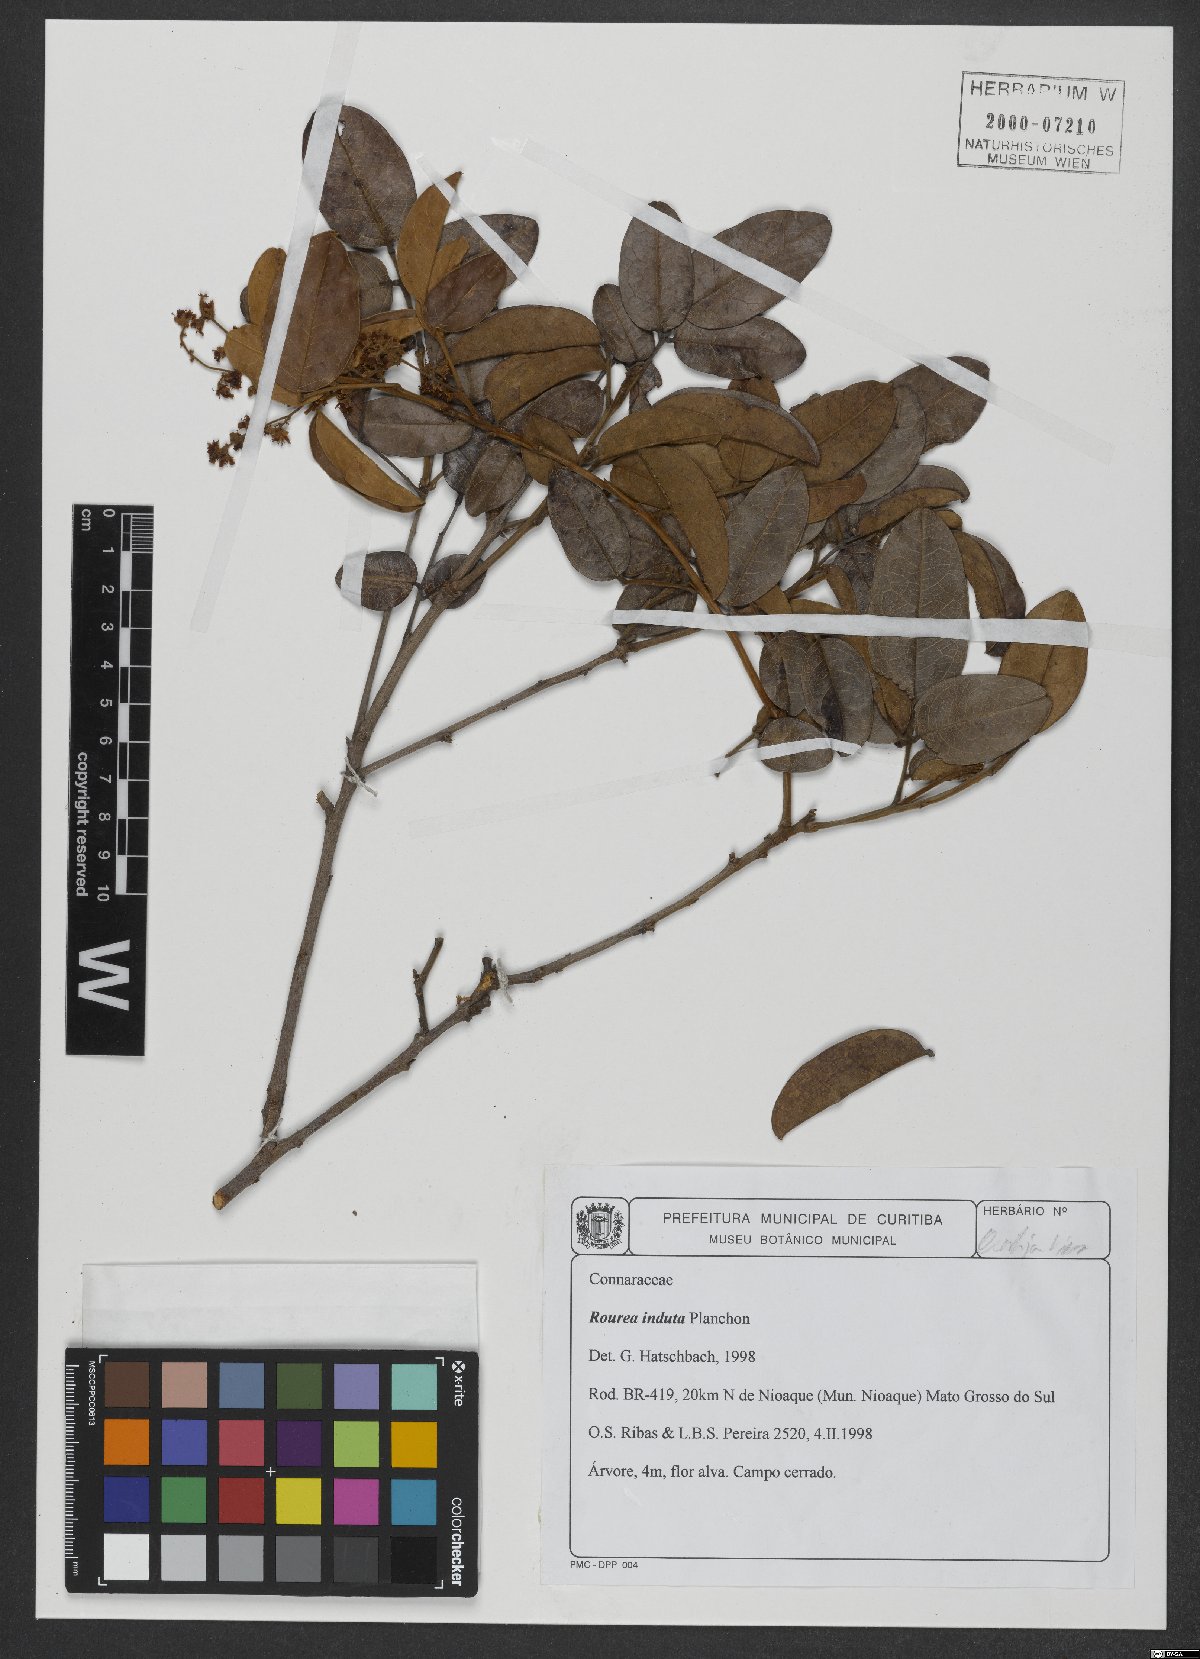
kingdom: Plantae
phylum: Tracheophyta
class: Magnoliopsida
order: Oxalidales
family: Connaraceae
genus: Rourea
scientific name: Rourea induta
